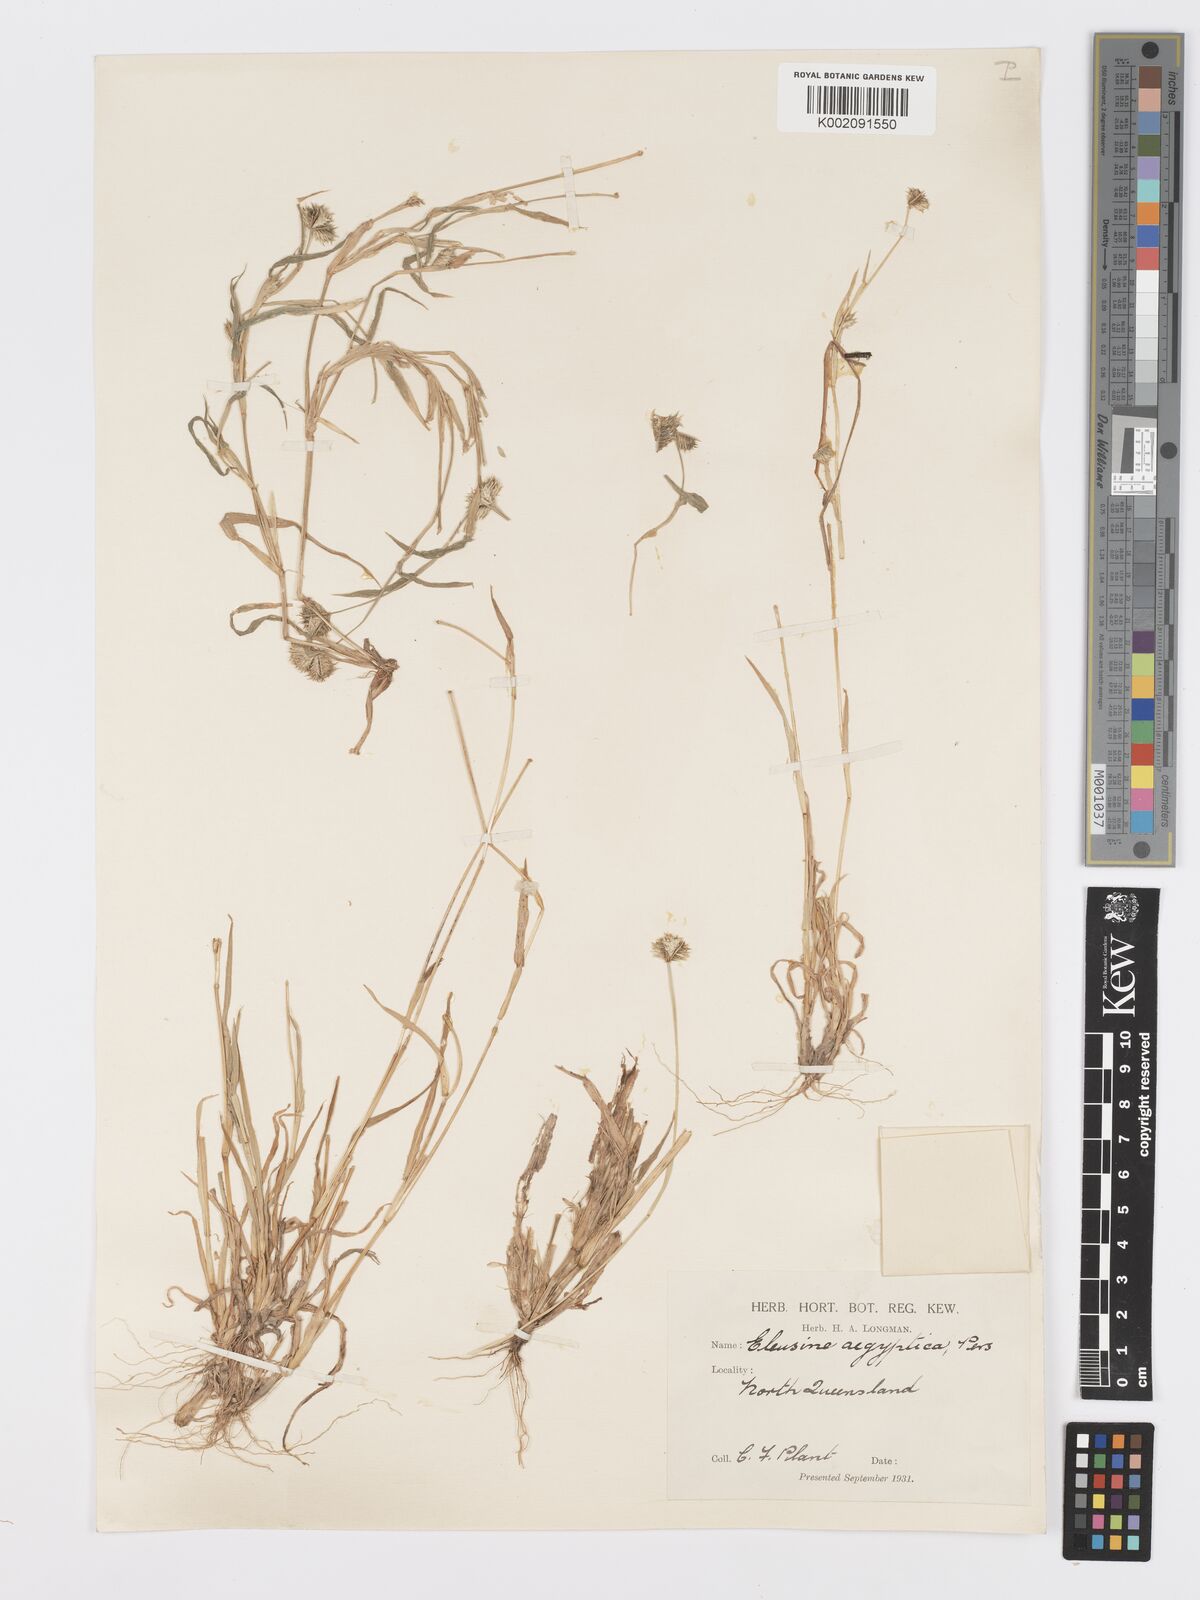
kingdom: Plantae
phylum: Tracheophyta
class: Liliopsida
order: Poales
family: Poaceae
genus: Dactyloctenium
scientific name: Dactyloctenium radulans
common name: Button-grass
